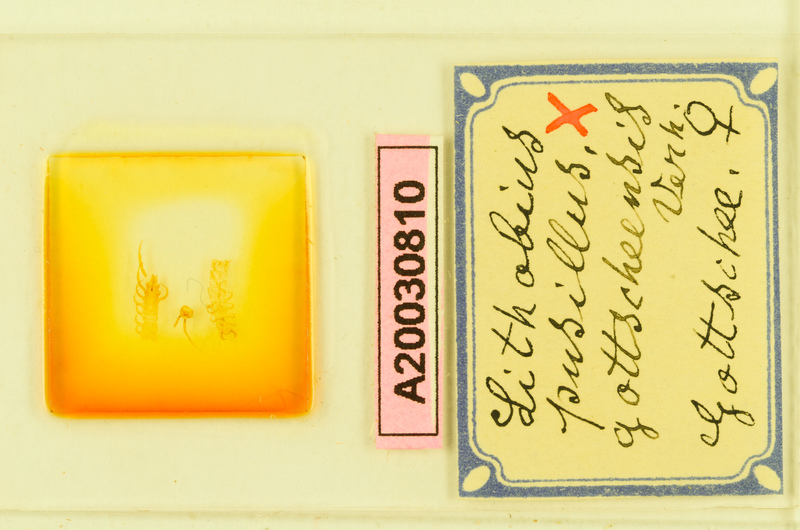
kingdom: Animalia
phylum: Arthropoda
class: Chilopoda
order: Lithobiomorpha
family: Lithobiidae
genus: Lithobius
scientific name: Lithobius
